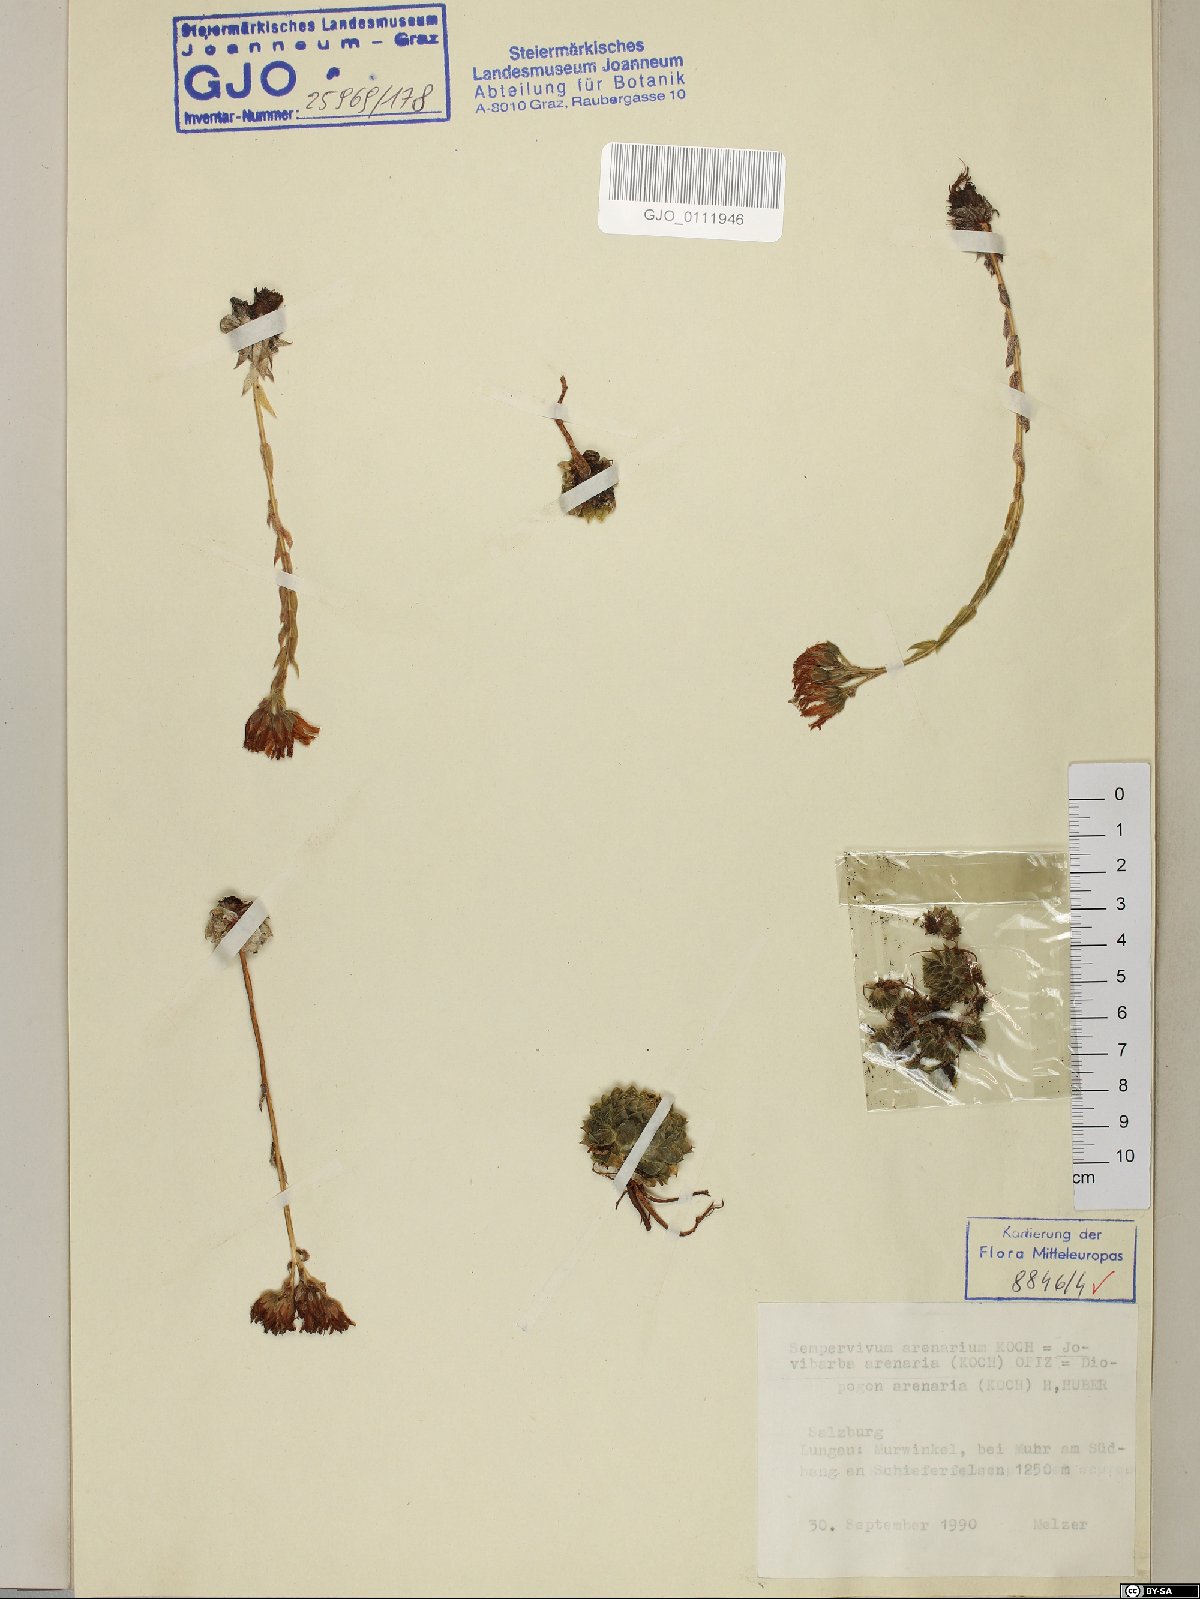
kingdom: Plantae
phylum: Tracheophyta
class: Magnoliopsida
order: Saxifragales
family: Crassulaceae
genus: Sempervivum
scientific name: Sempervivum globiferum
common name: Rolling hen-and-chicks
